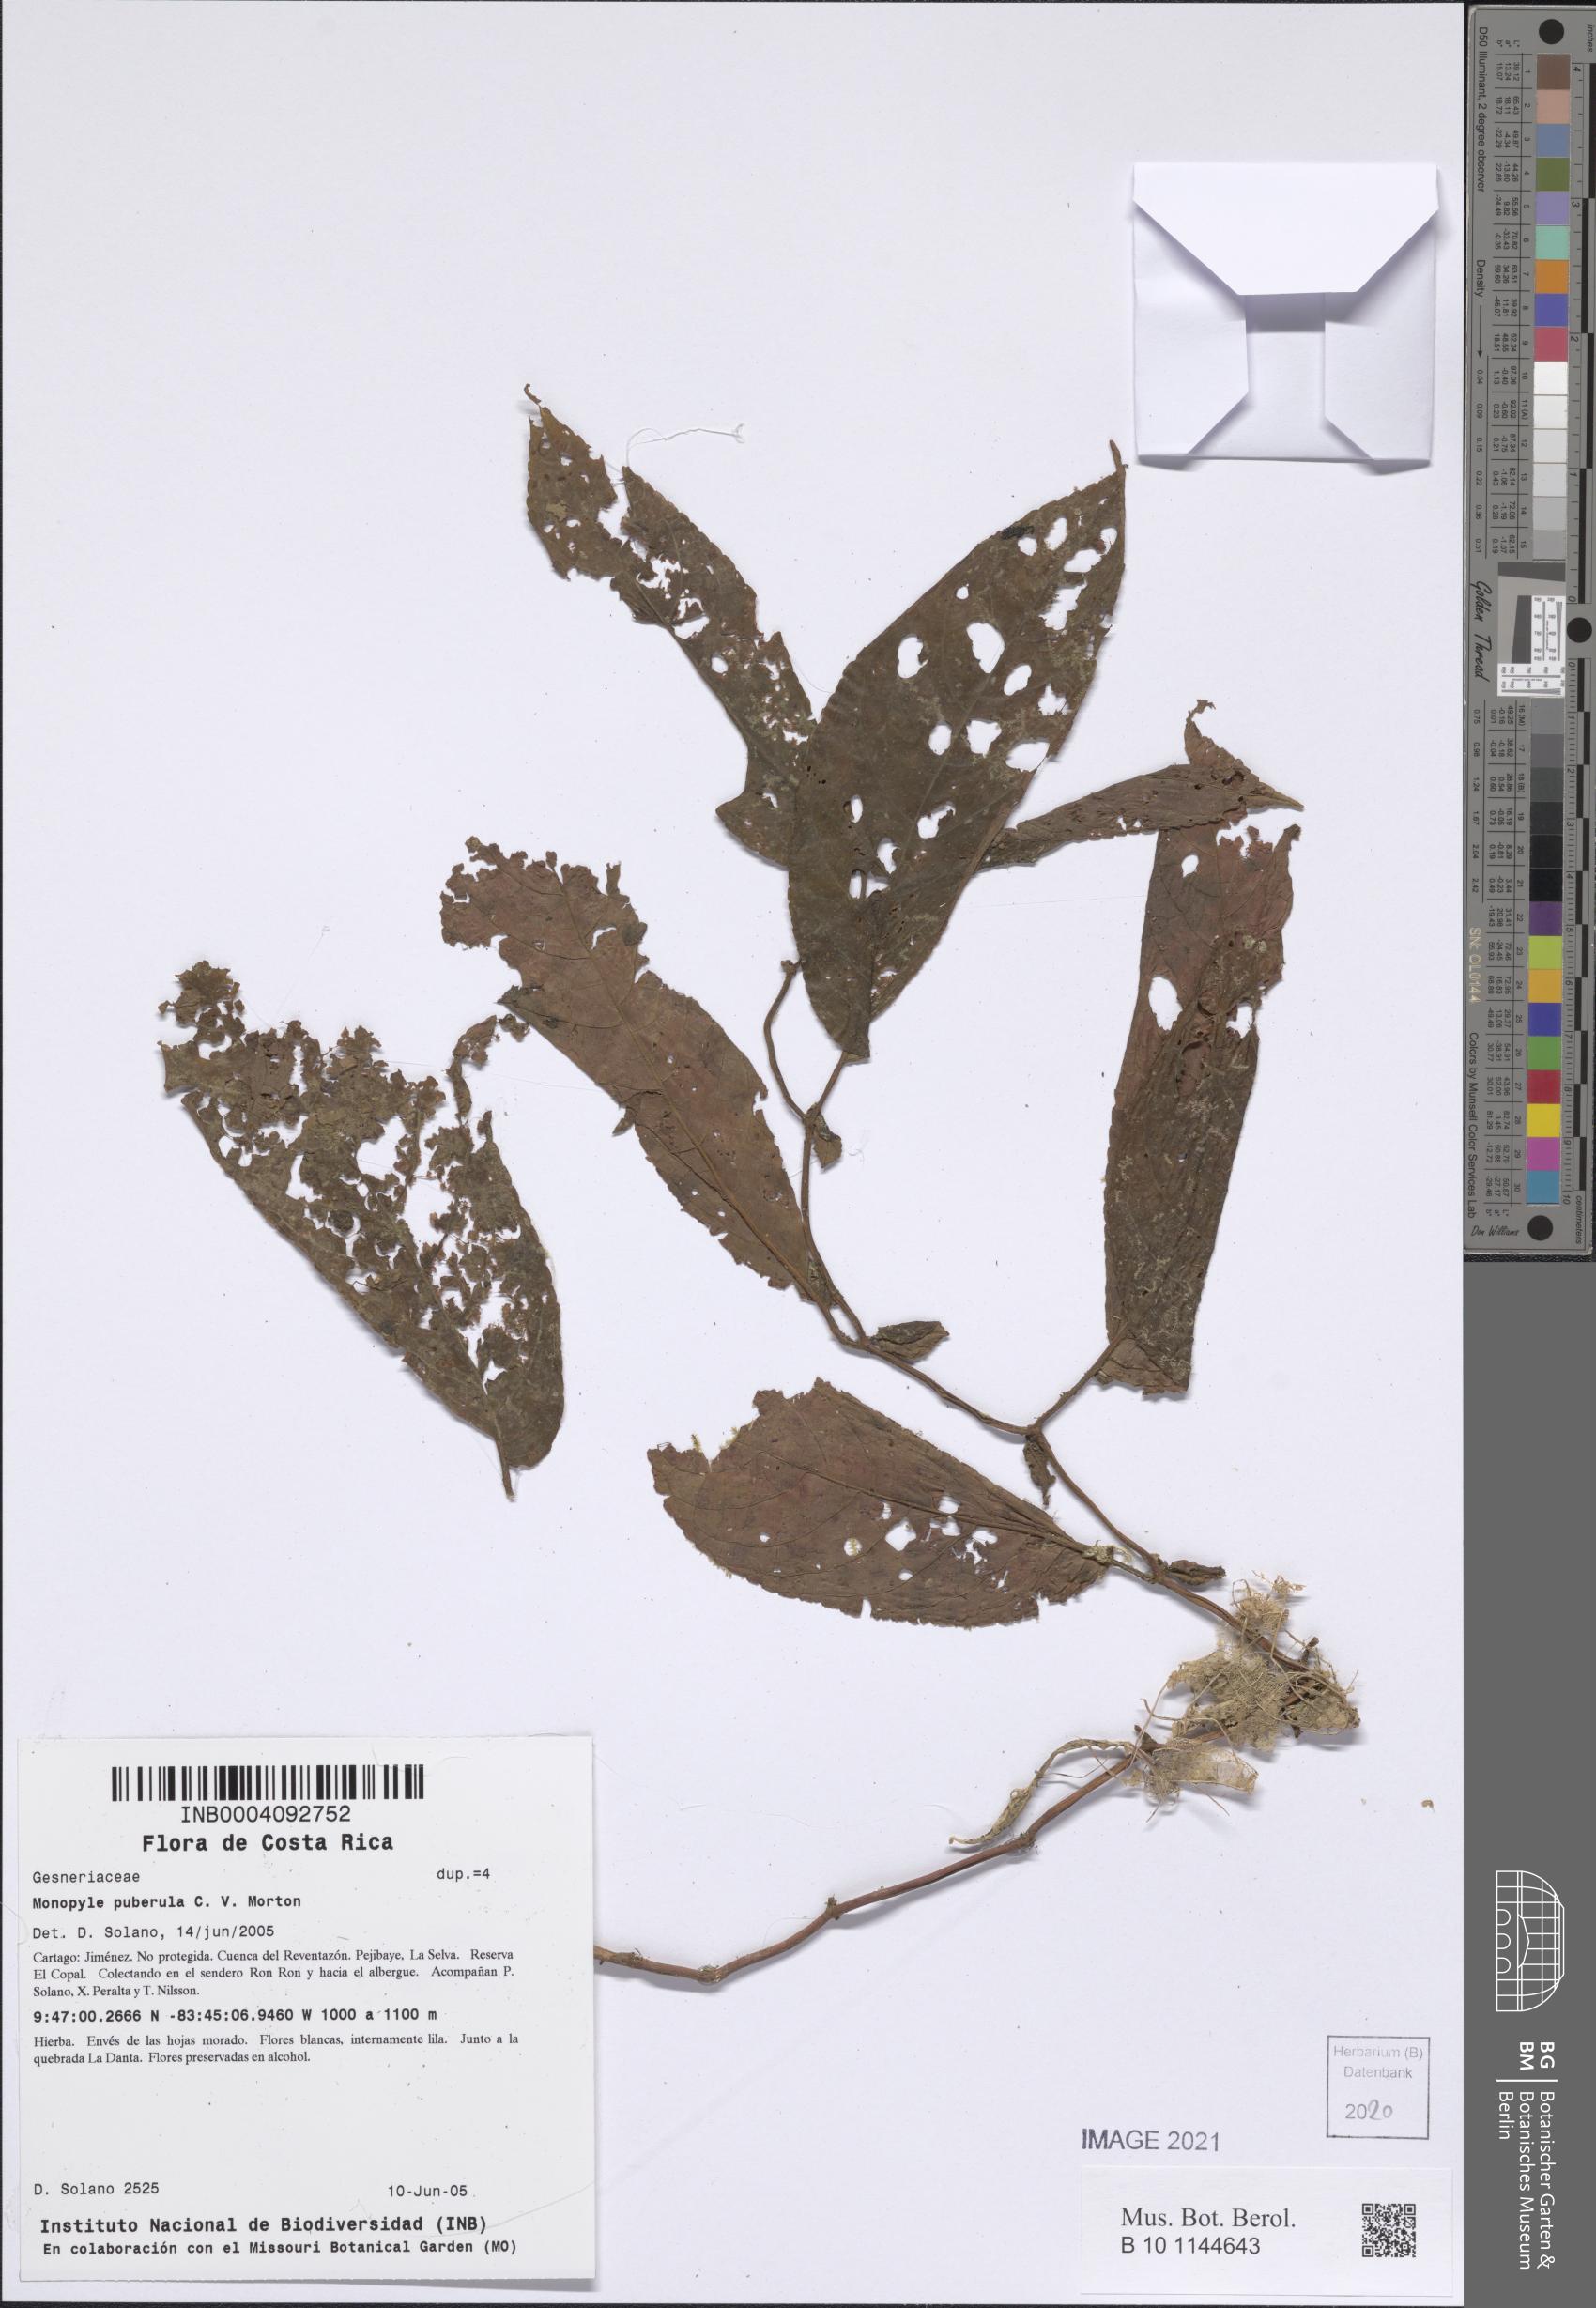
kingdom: Plantae
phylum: Tracheophyta
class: Magnoliopsida
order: Lamiales
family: Gesneriaceae
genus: Monopyle
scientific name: Monopyle puberula
